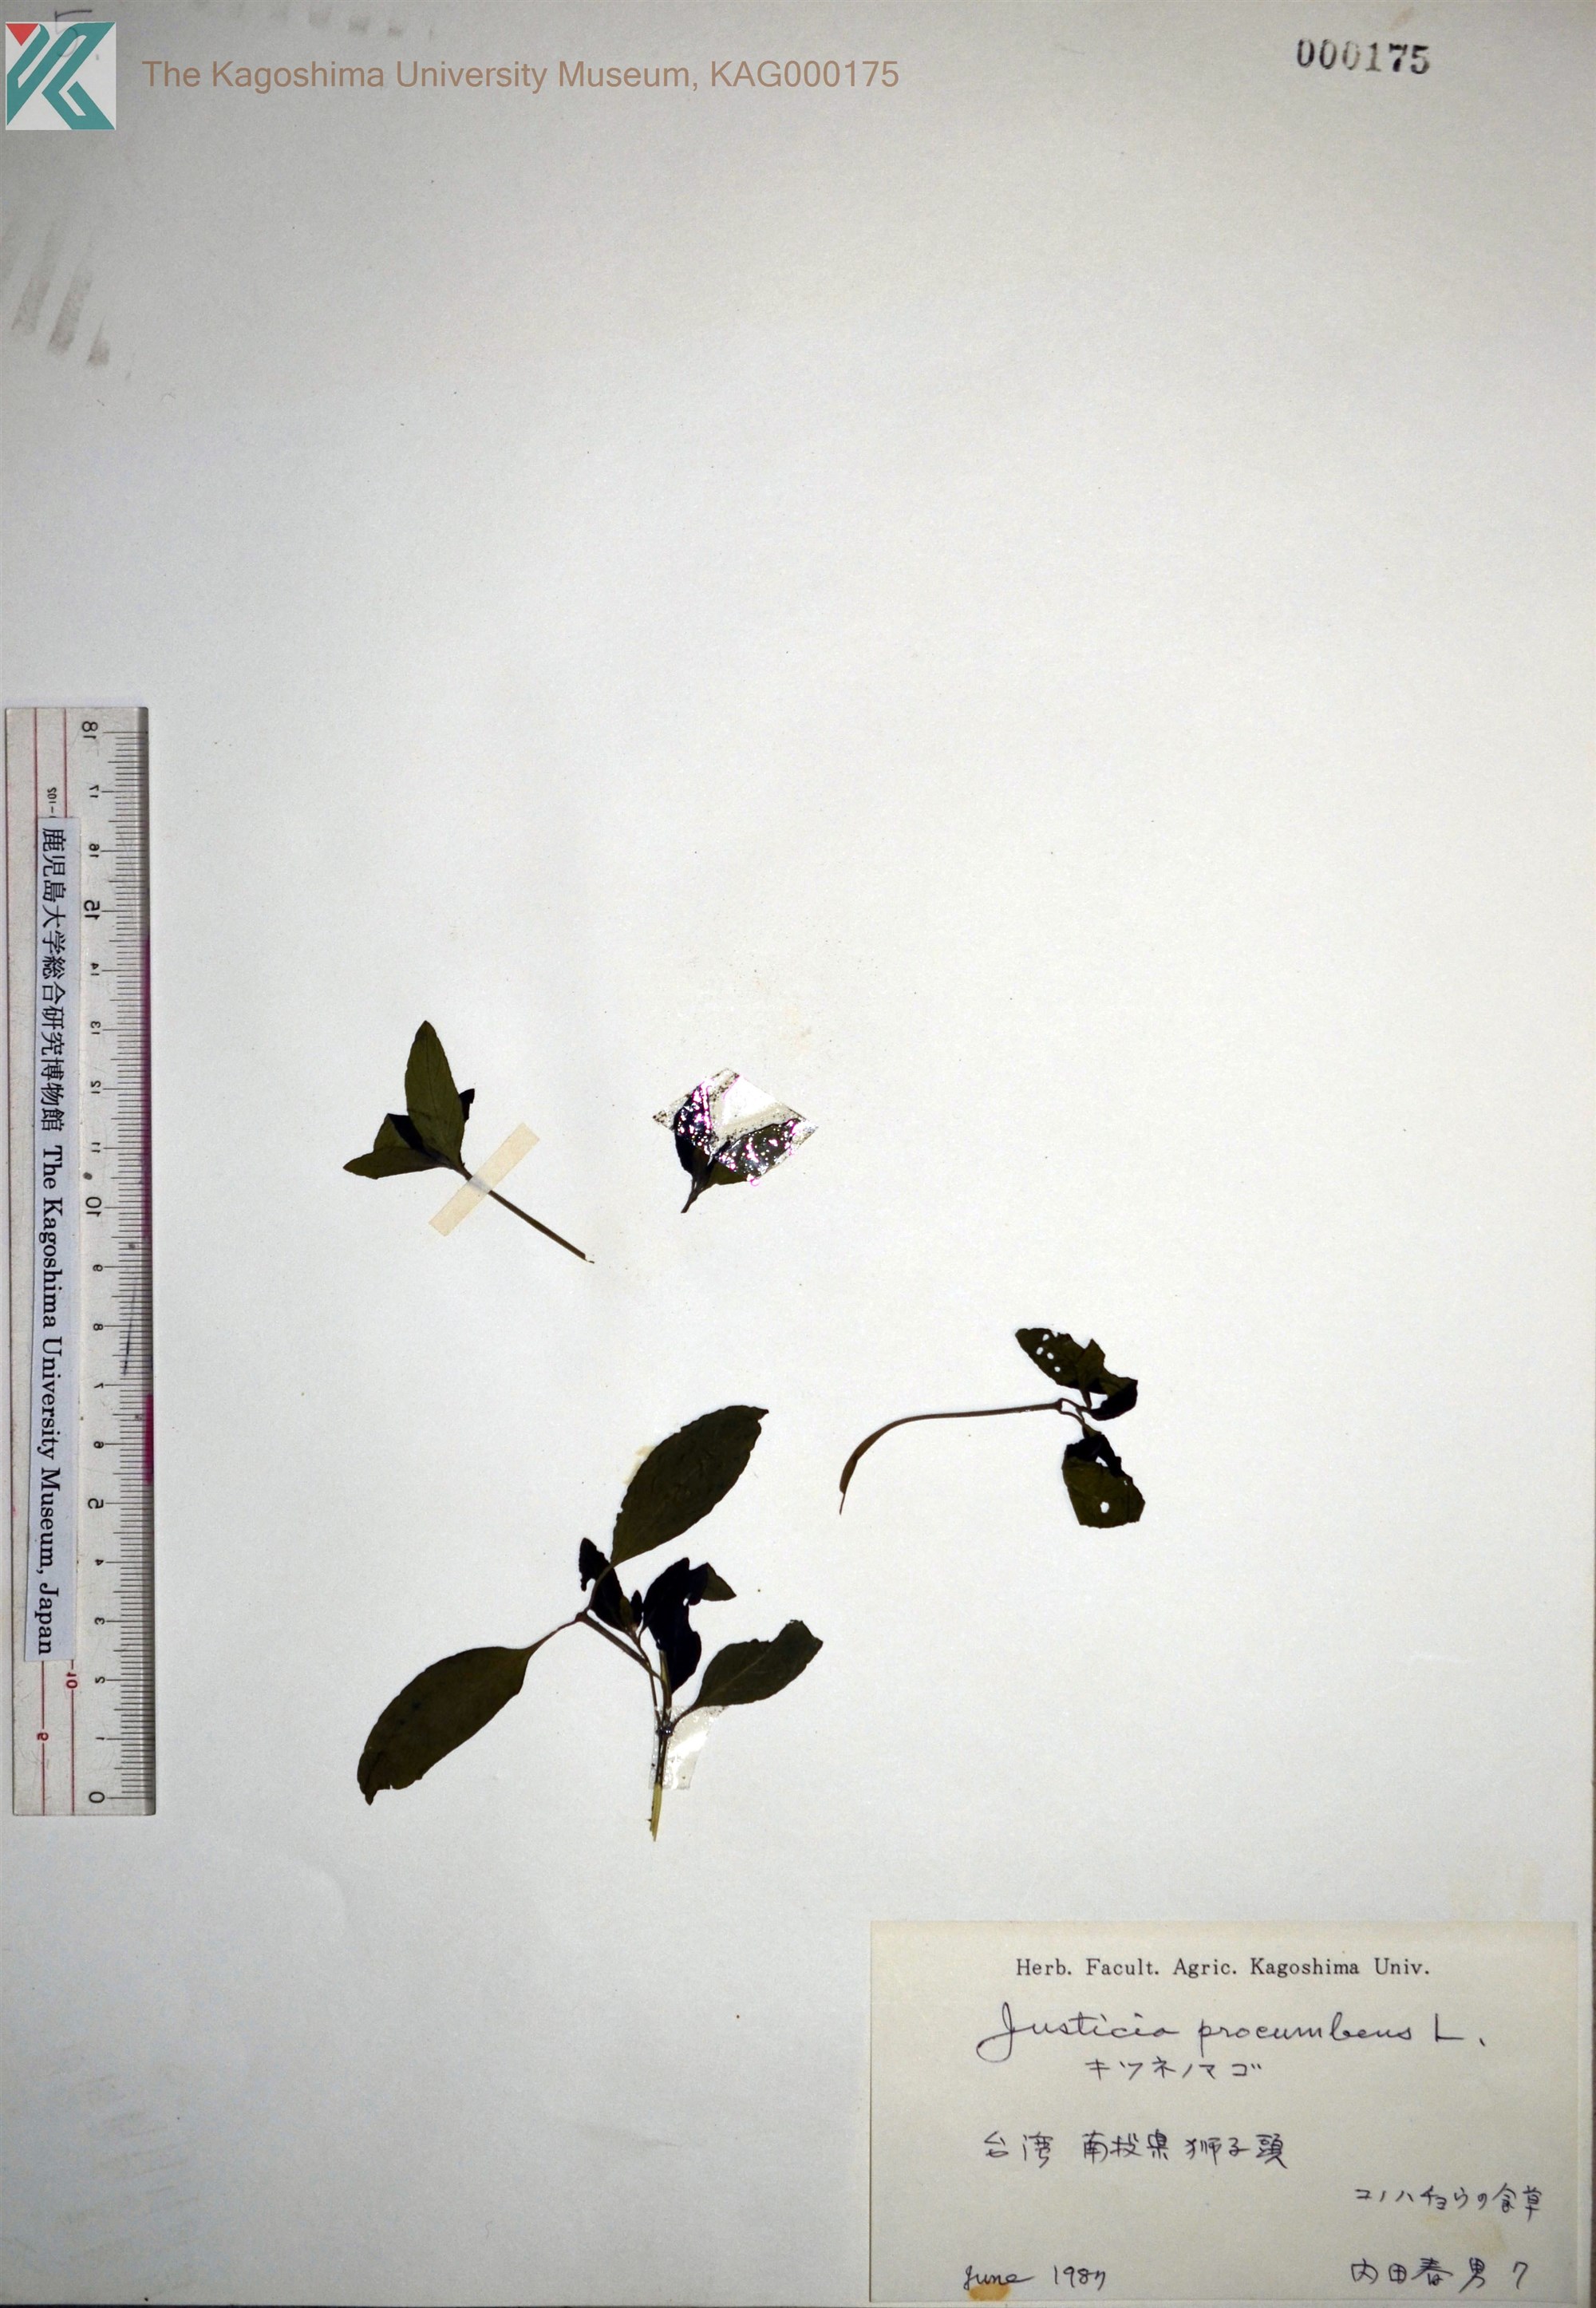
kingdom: Plantae
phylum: Tracheophyta
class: Magnoliopsida
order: Lamiales
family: Acanthaceae
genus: Rostellularia
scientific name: Rostellularia procumbens
